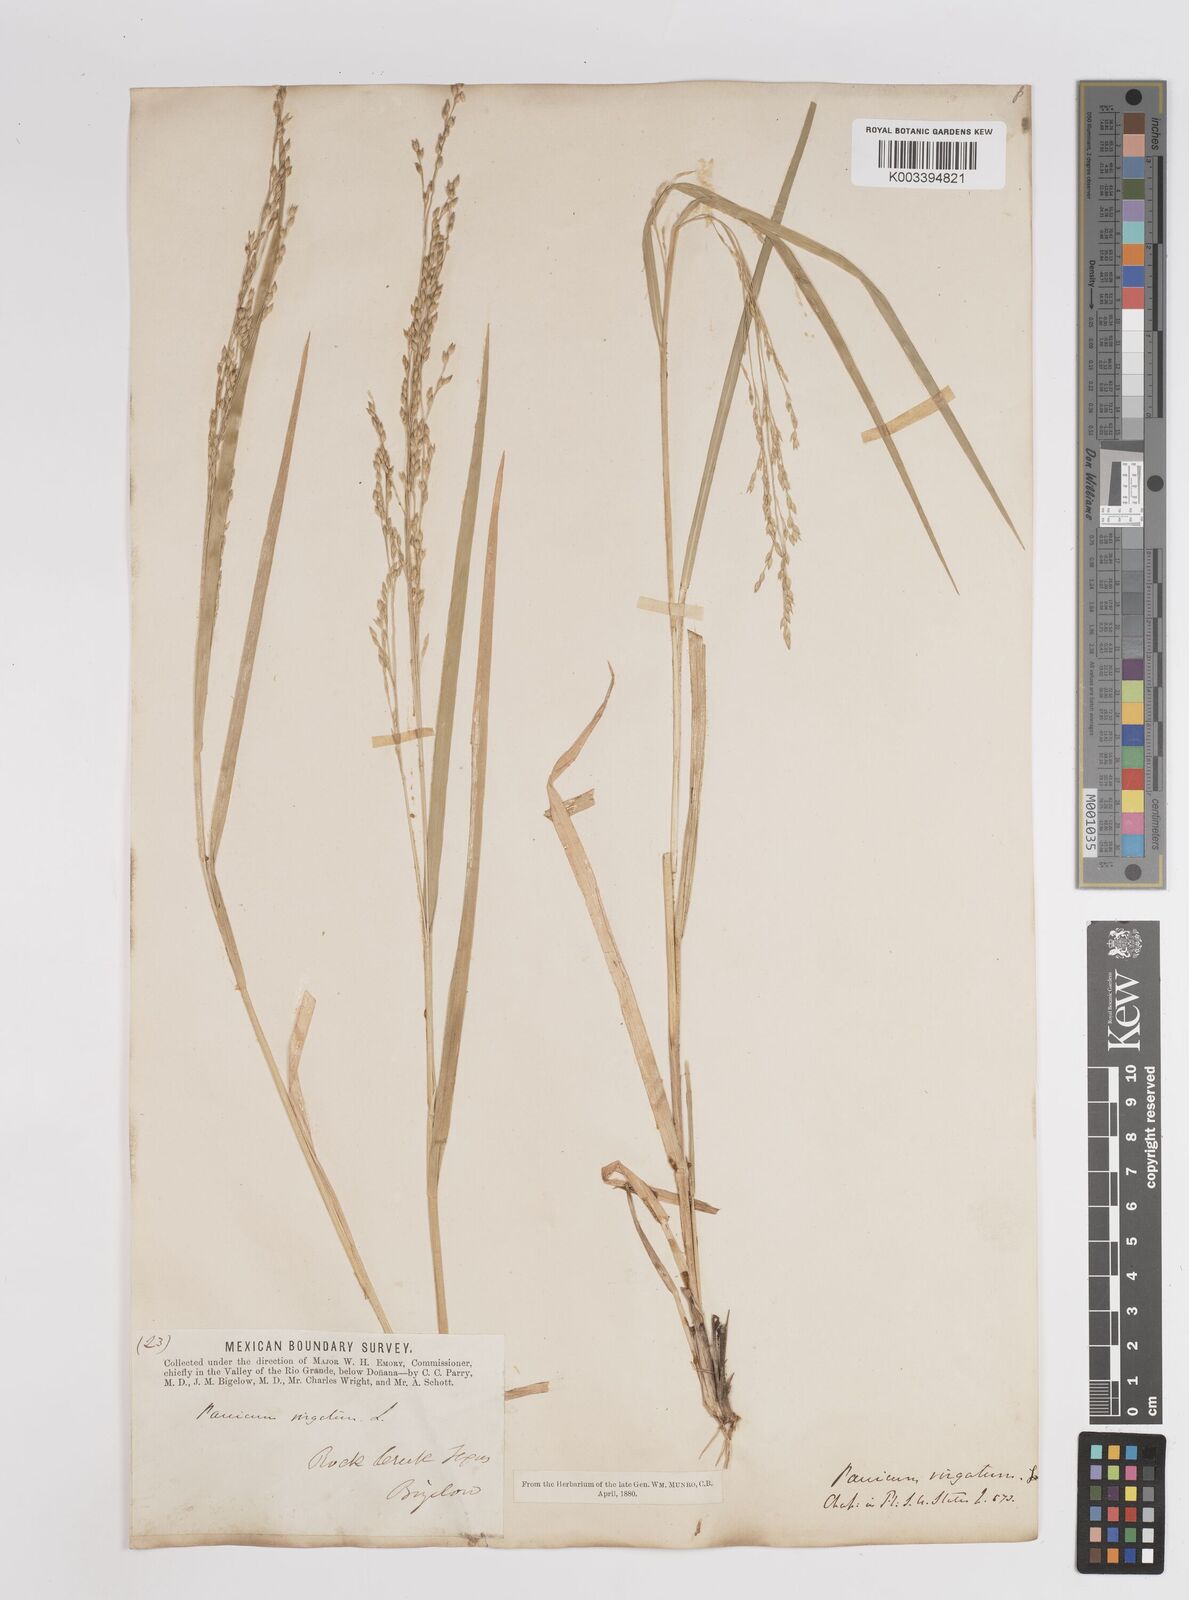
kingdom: Plantae
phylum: Tracheophyta
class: Liliopsida
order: Poales
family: Poaceae
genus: Panicum
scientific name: Panicum virgatum
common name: Switchgrass
